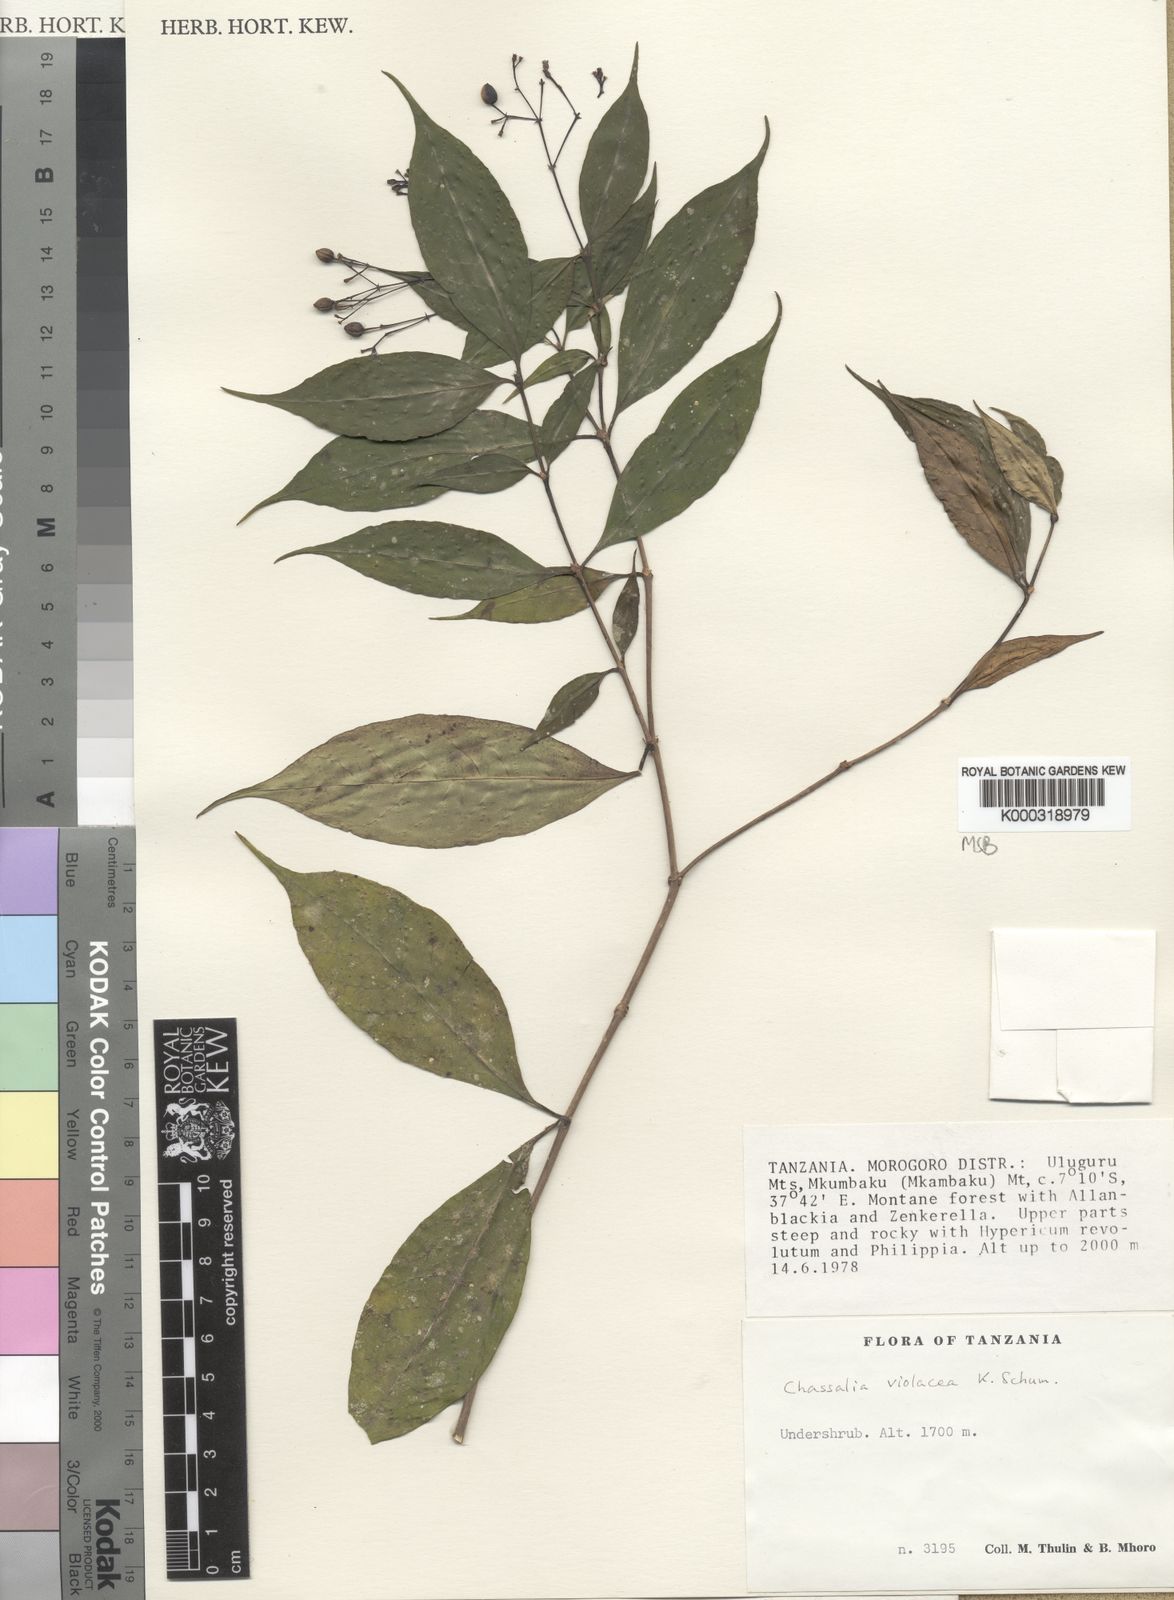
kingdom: Plantae
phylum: Tracheophyta
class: Magnoliopsida
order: Gentianales
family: Rubiaceae
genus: Chassalia
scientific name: Chassalia violacea
